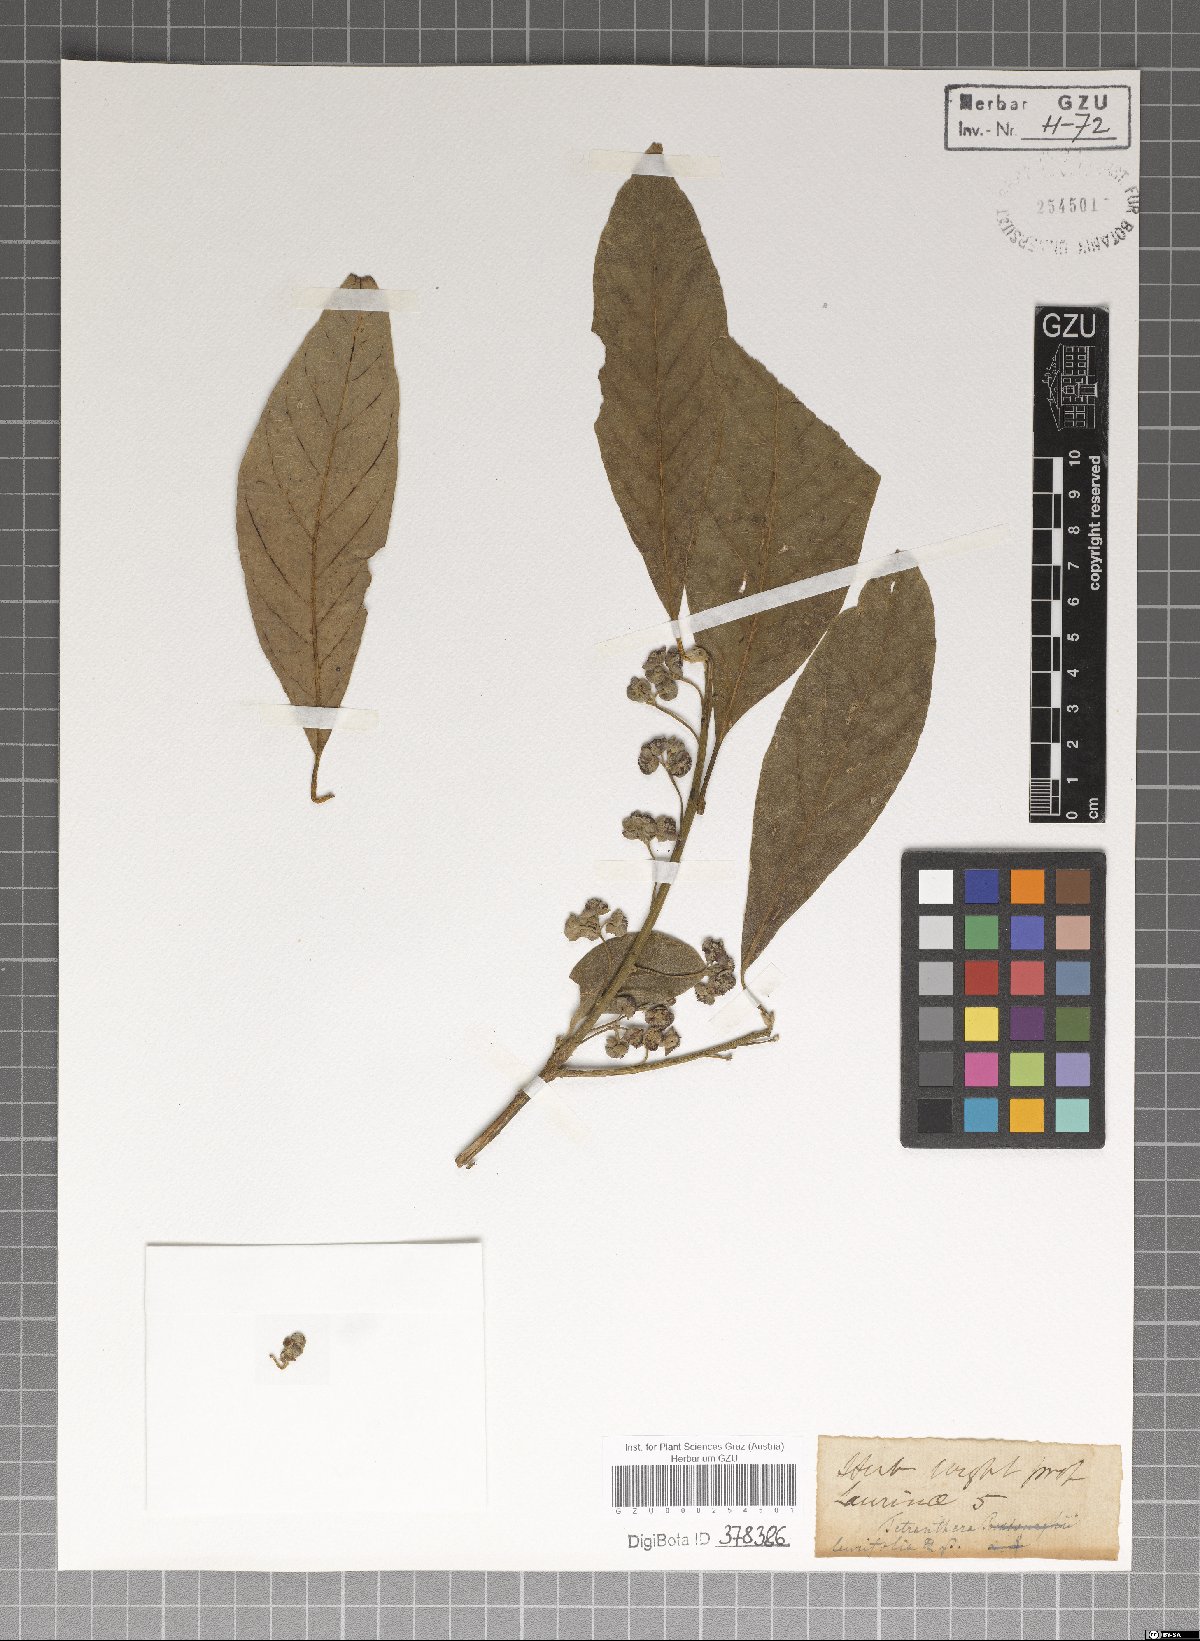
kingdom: Plantae
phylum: Tracheophyta
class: Magnoliopsida
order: Laurales
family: Lauraceae
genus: Litsea
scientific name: Litsea glutinosa
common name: Indian-laurel
